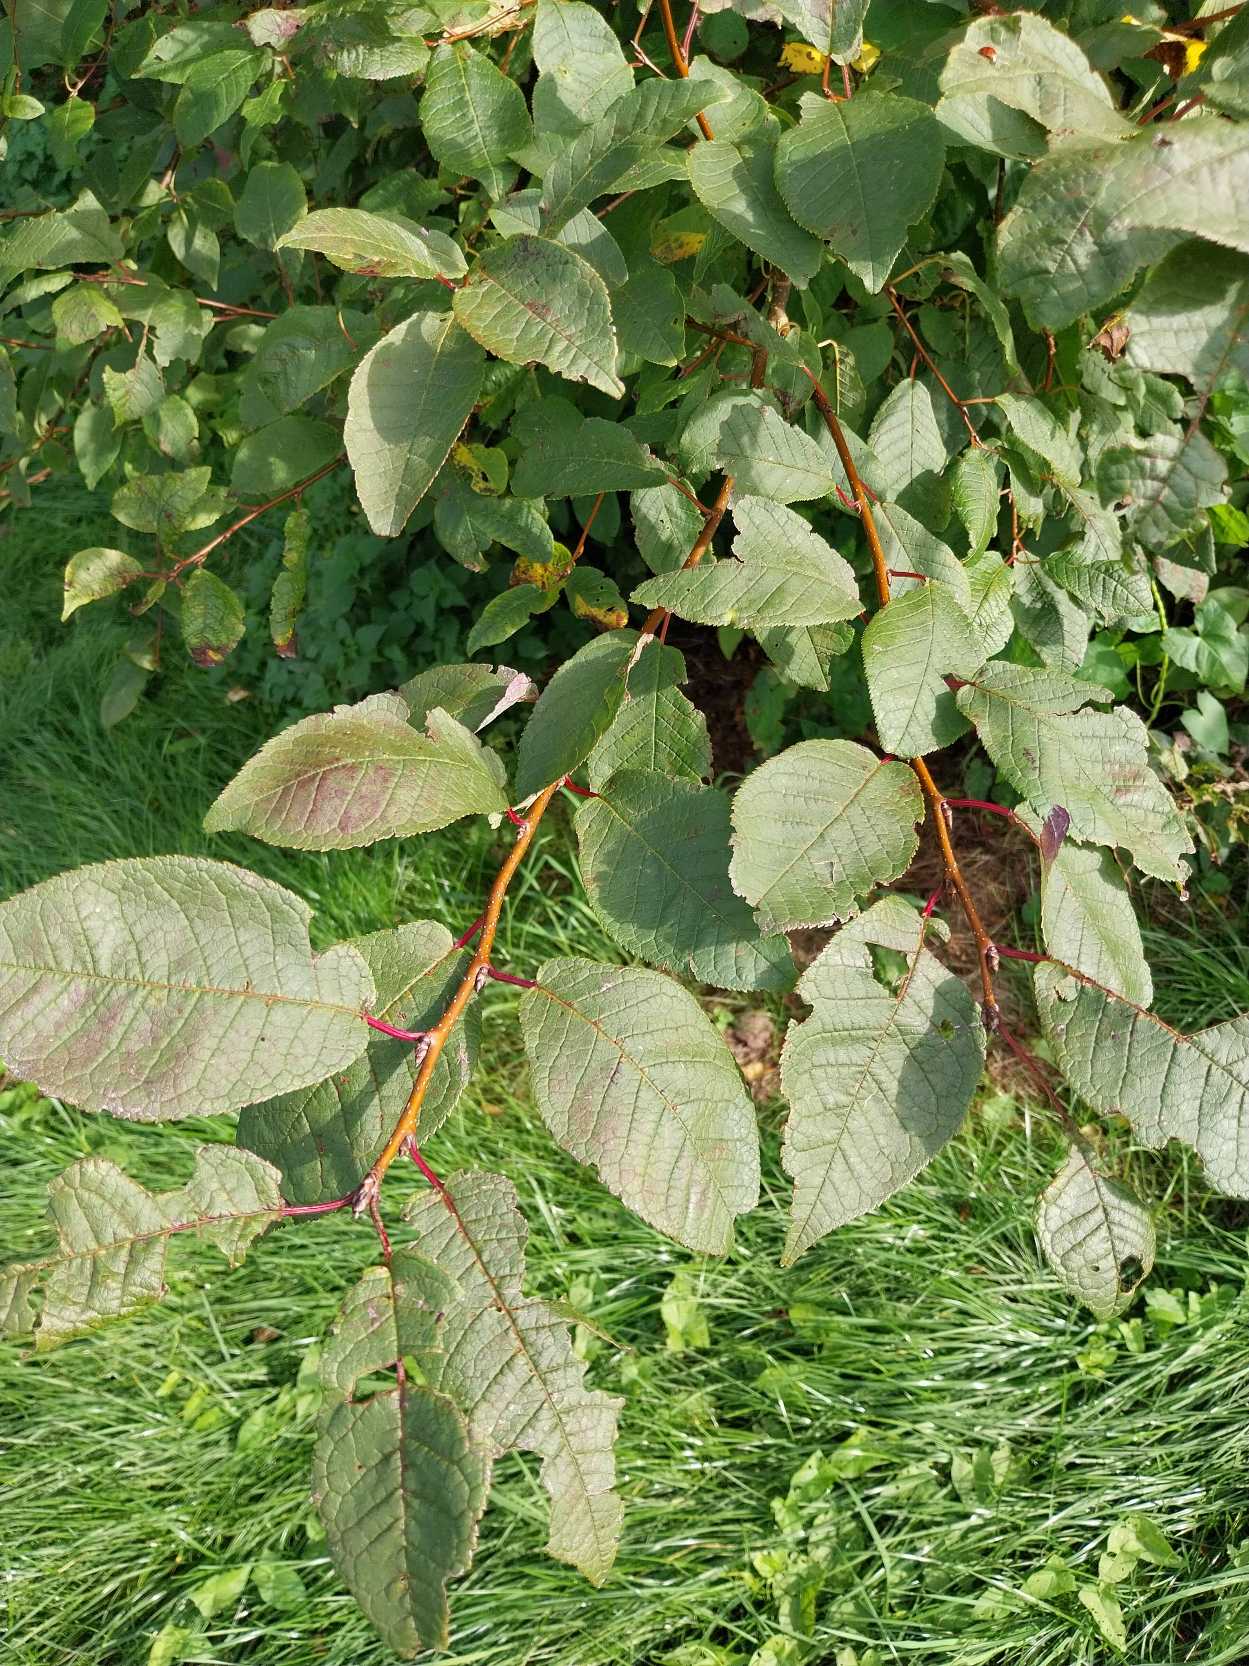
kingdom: Plantae
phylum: Tracheophyta
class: Magnoliopsida
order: Rosales
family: Rosaceae
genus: Prunus
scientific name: Prunus padus
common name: Almindelig hæg
